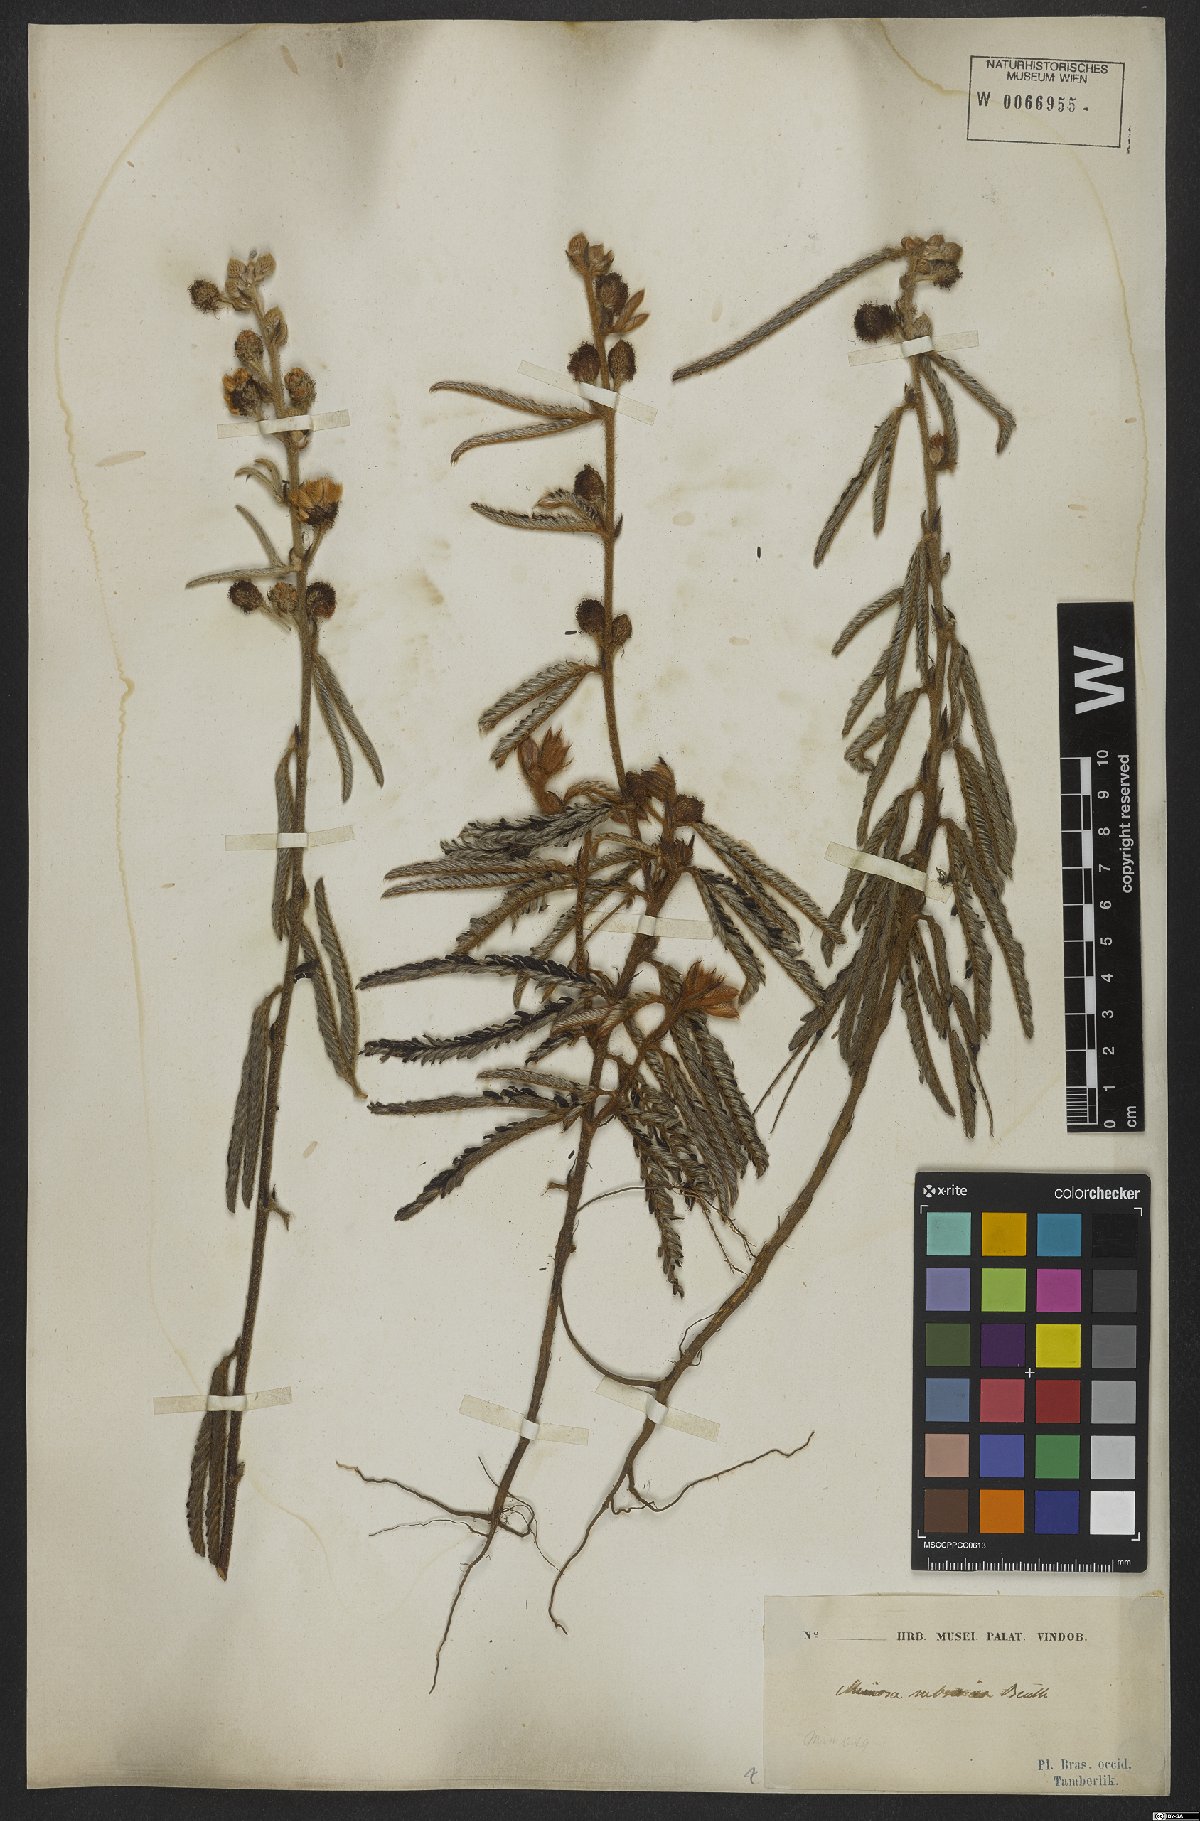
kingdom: Plantae
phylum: Tracheophyta
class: Magnoliopsida
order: Fabales
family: Fabaceae
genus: Mimosa
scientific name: Mimosa xanthocentra
